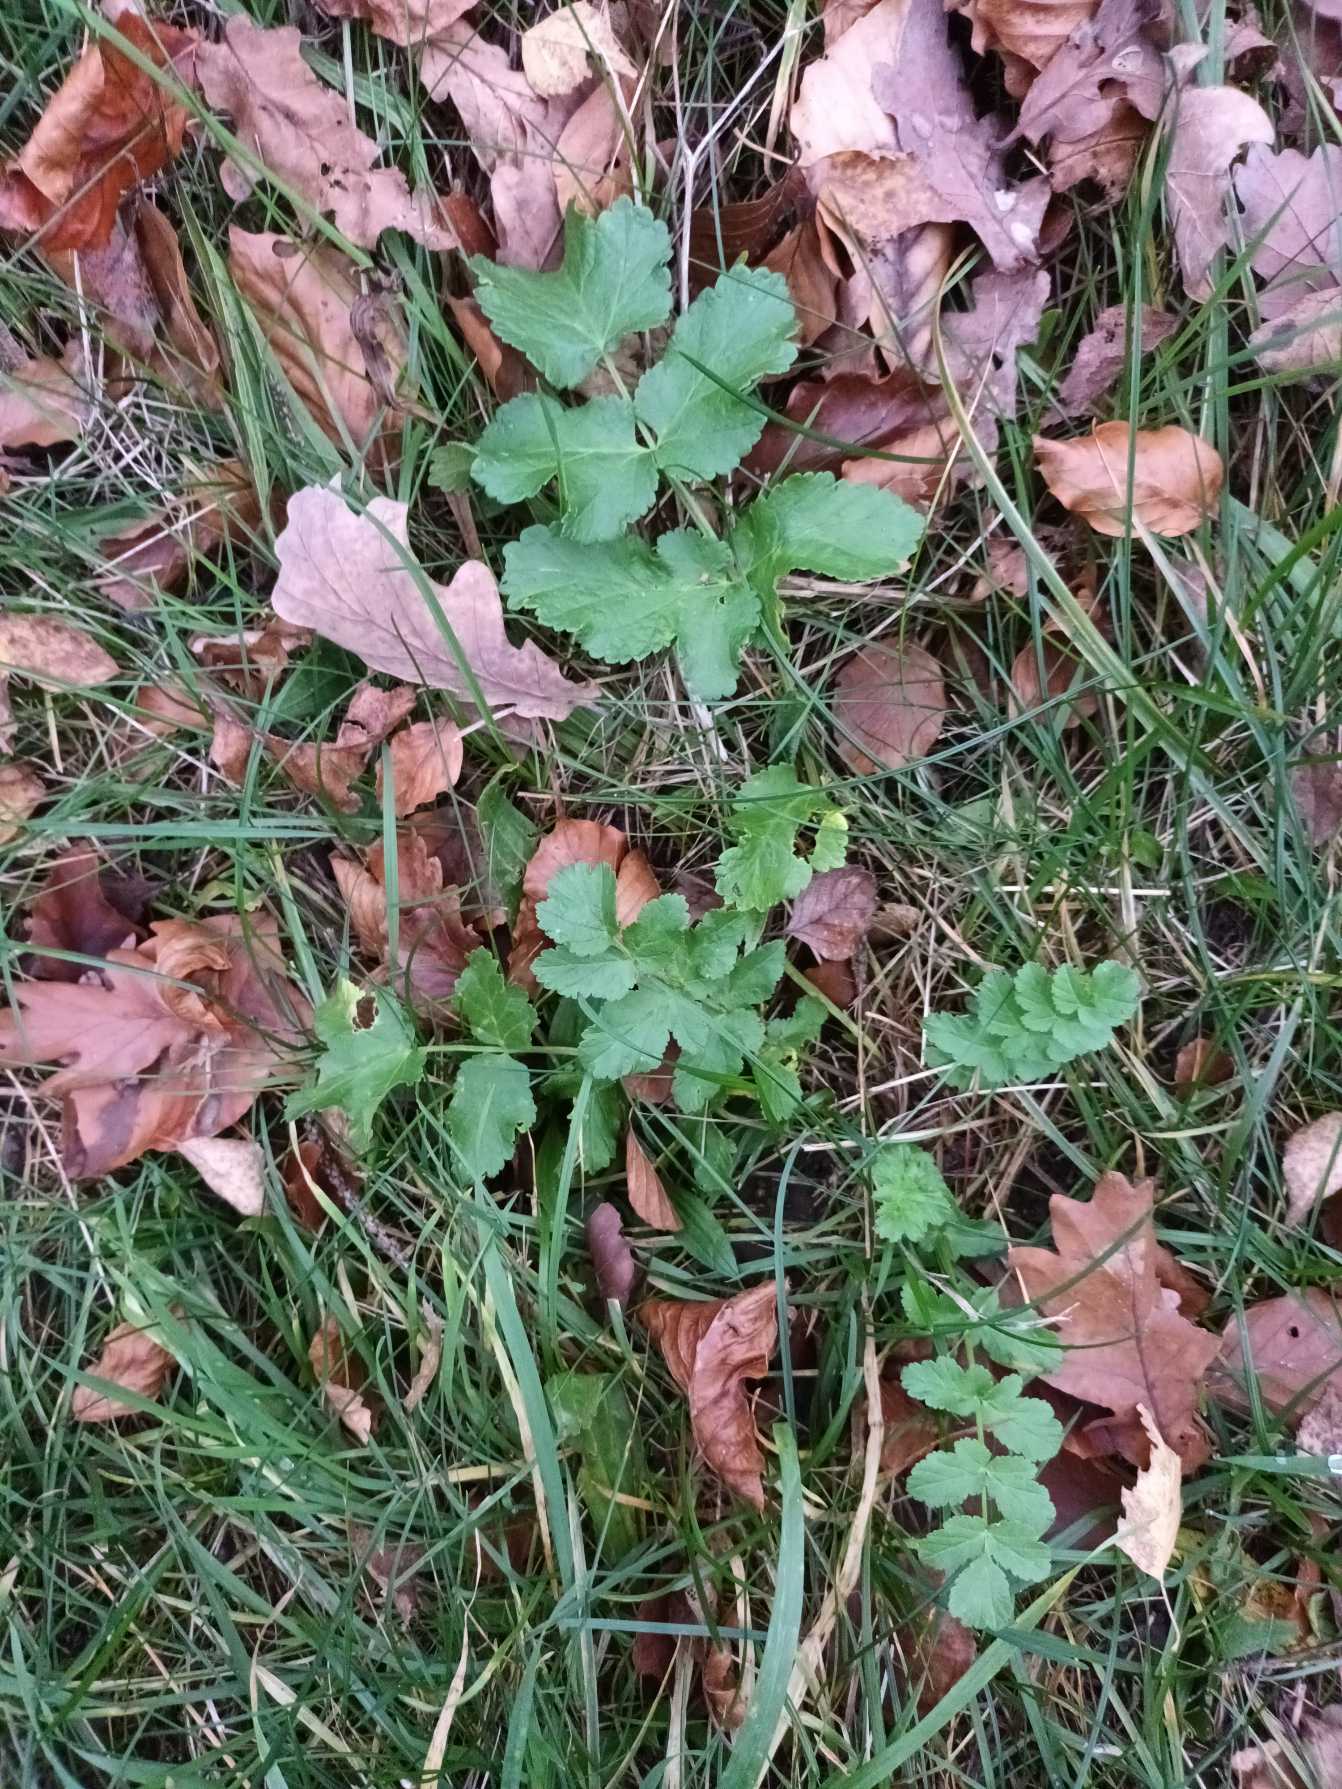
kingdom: Plantae
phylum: Tracheophyta
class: Magnoliopsida
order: Apiales
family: Apiaceae
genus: Pastinaca
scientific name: Pastinaca sativa
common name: Pastinak
